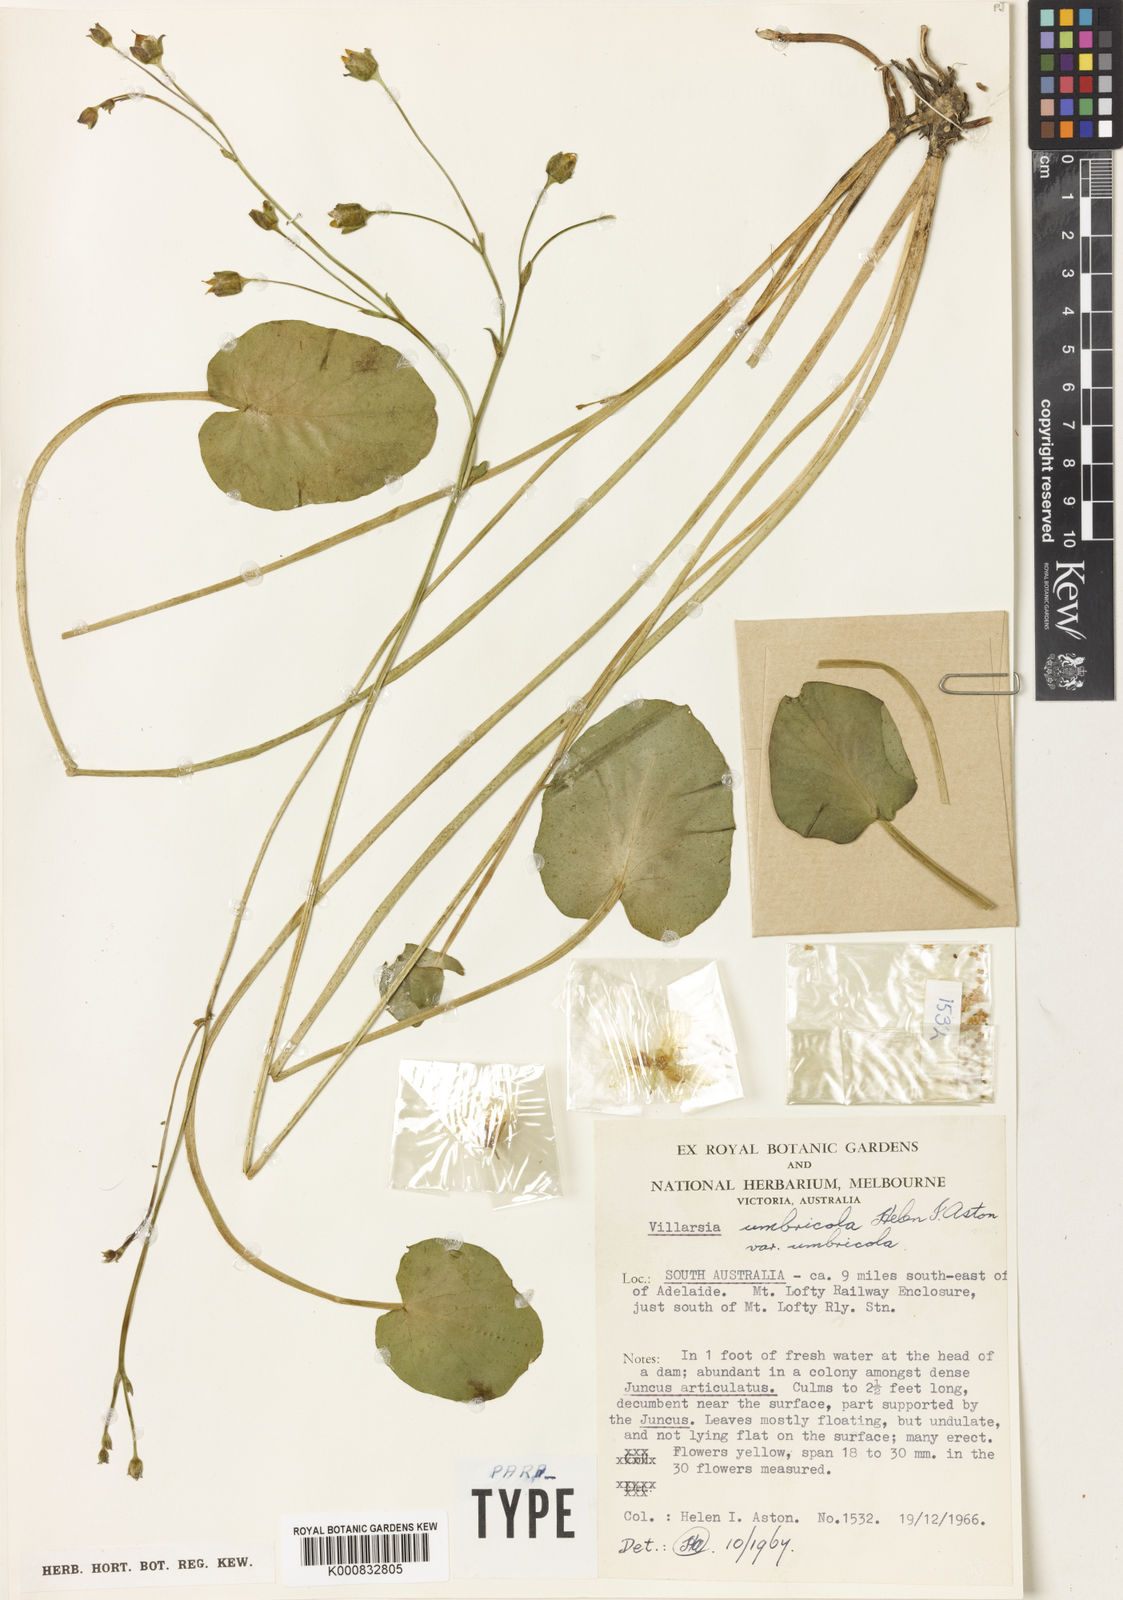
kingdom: Plantae
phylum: Tracheophyta
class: Magnoliopsida
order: Asterales
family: Menyanthaceae
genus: Ornduffia
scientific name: Ornduffia umbricola
